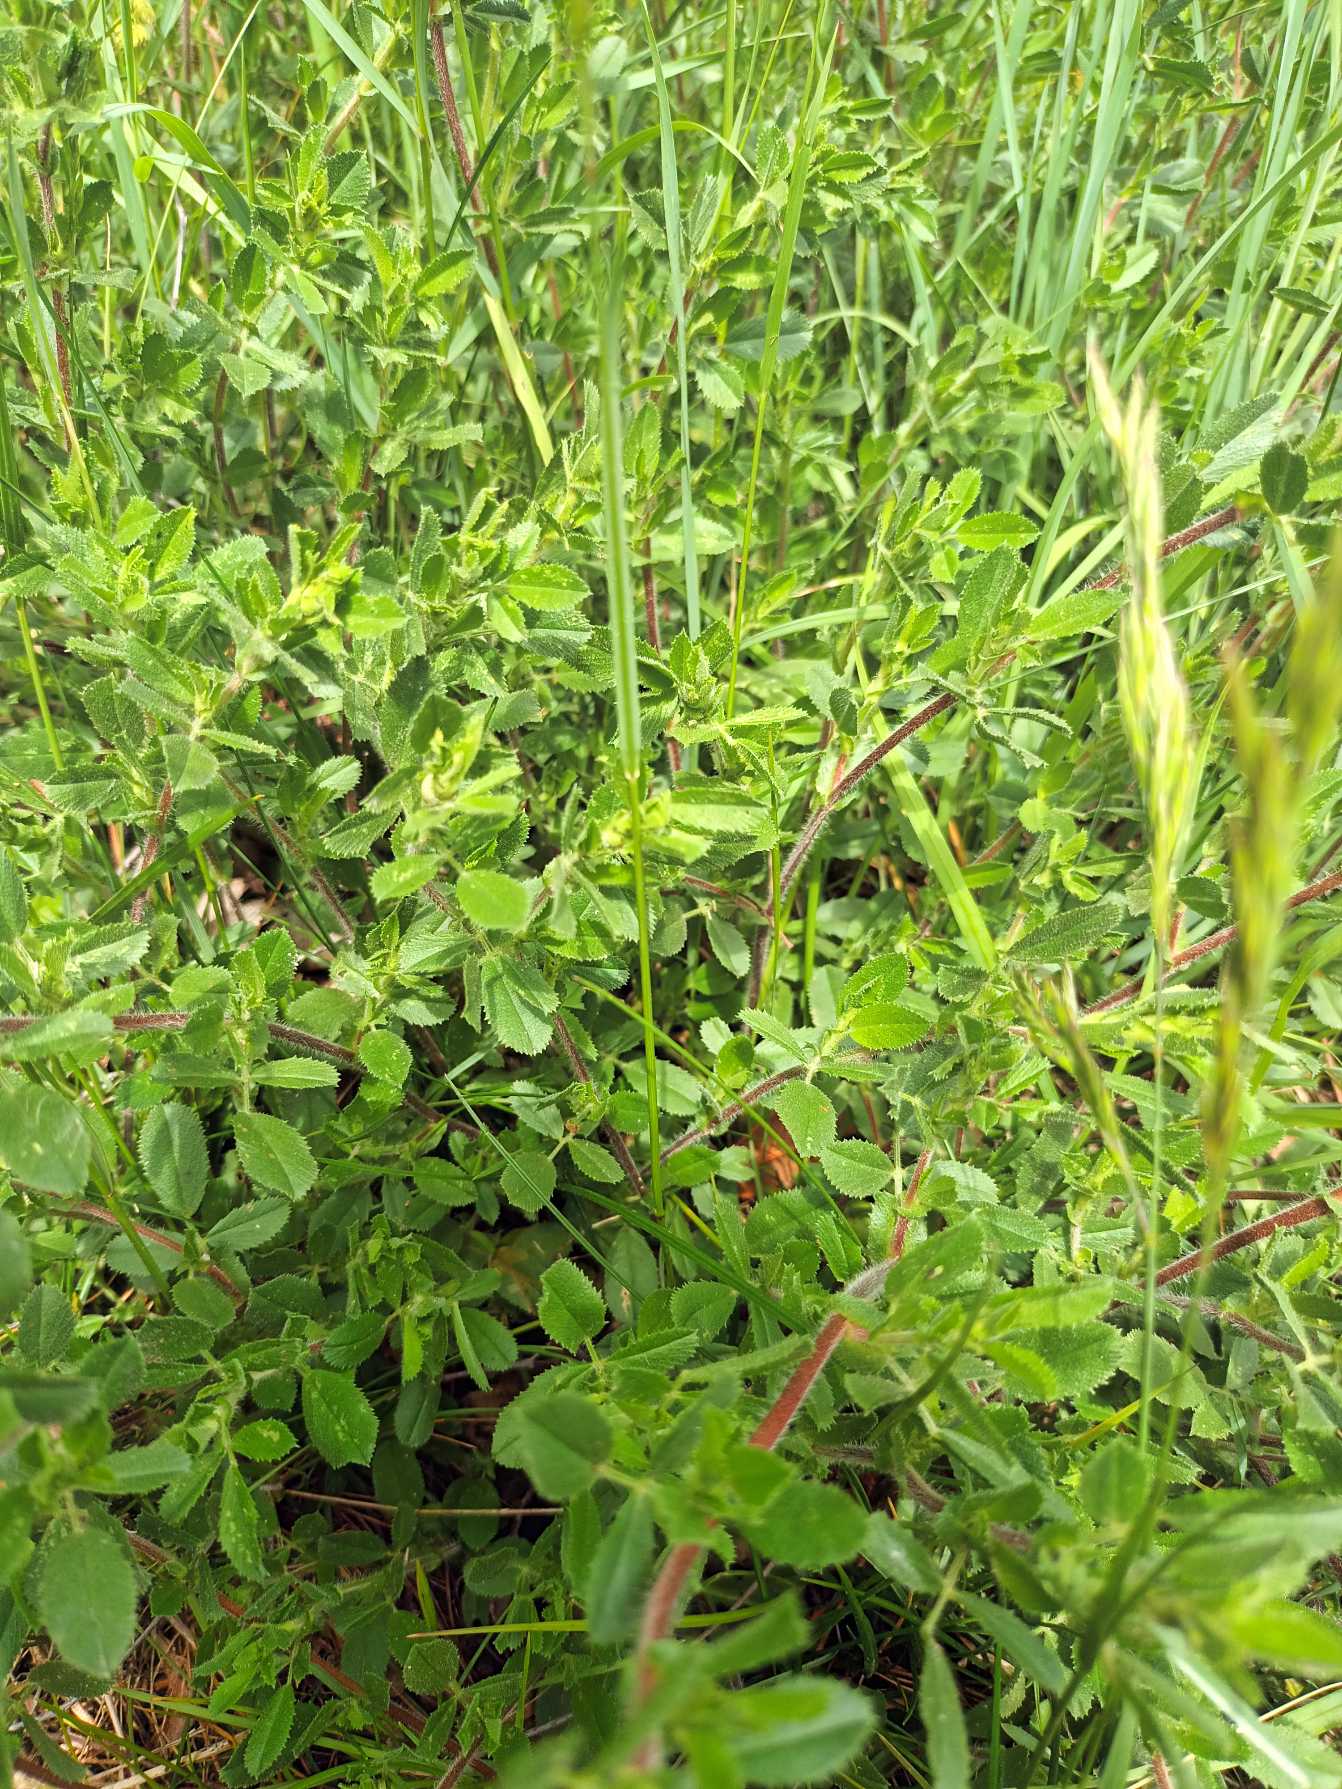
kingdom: Plantae
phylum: Tracheophyta
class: Magnoliopsida
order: Fabales
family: Fabaceae
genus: Ononis
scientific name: Ononis spinosa
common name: Mark-krageklo
